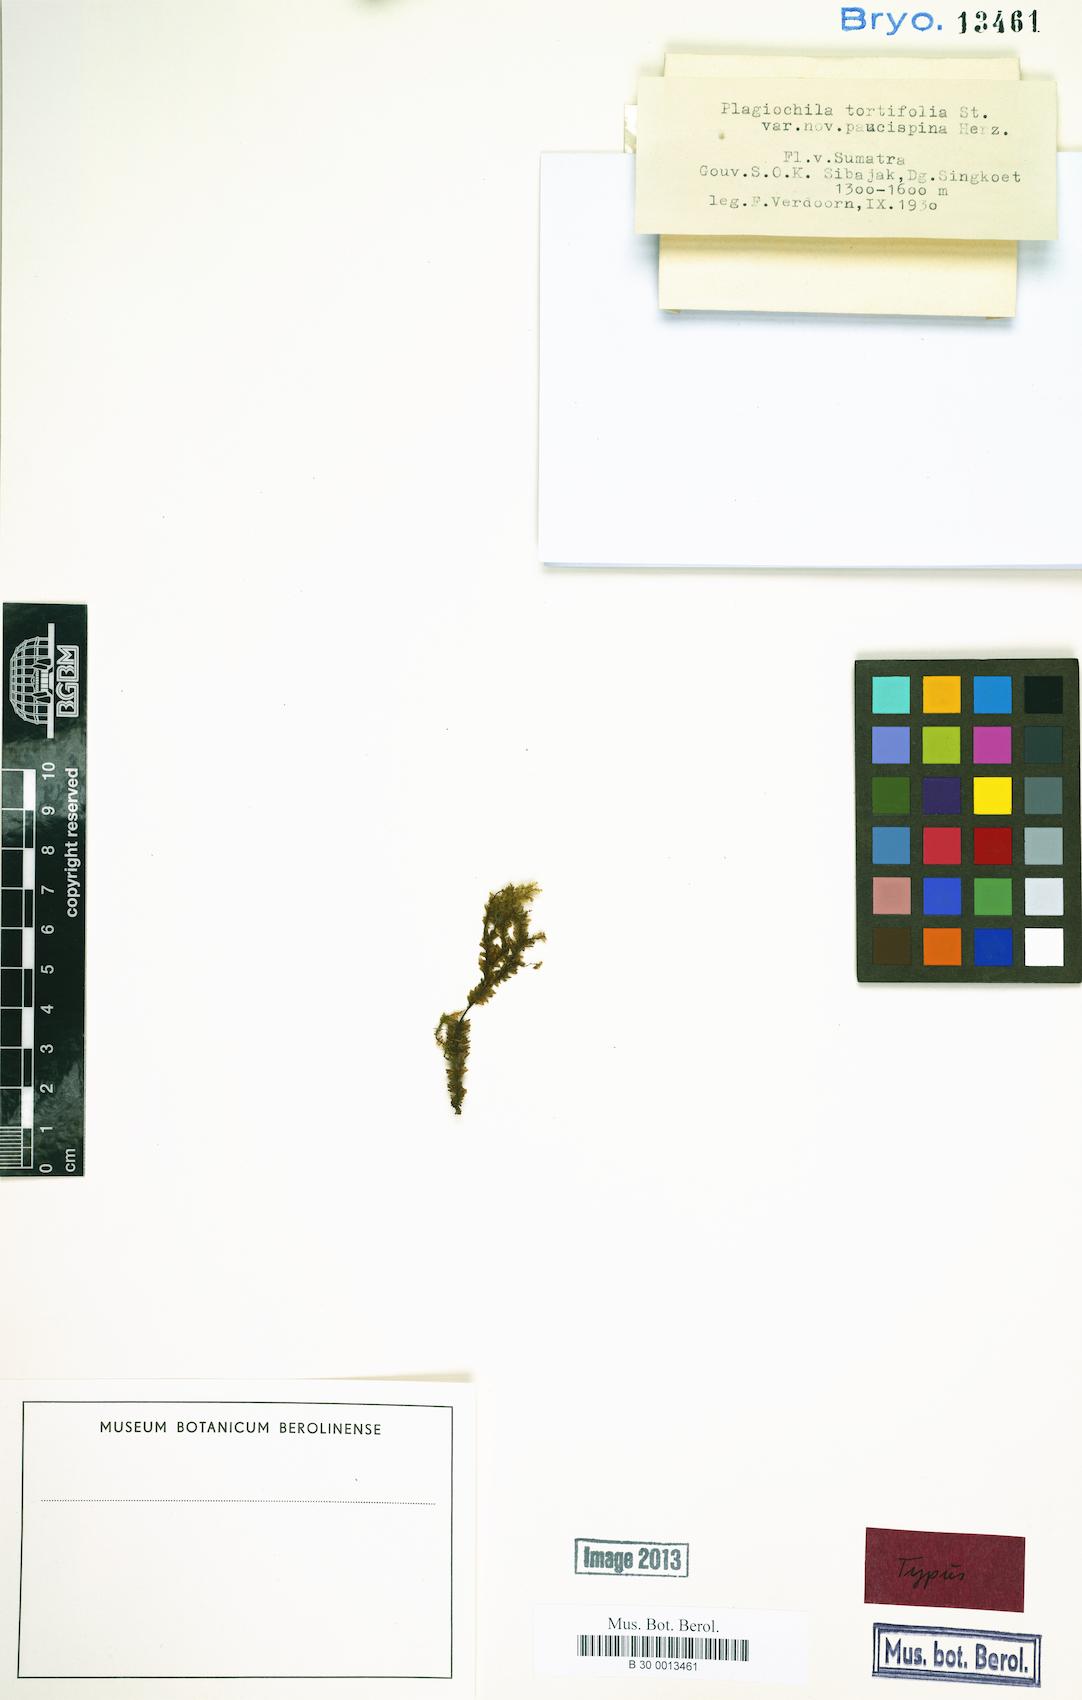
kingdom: Plantae
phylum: Marchantiophyta
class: Jungermanniopsida
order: Jungermanniales
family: Plagiochilaceae
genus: Plagiochila
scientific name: Plagiochila kurzii
